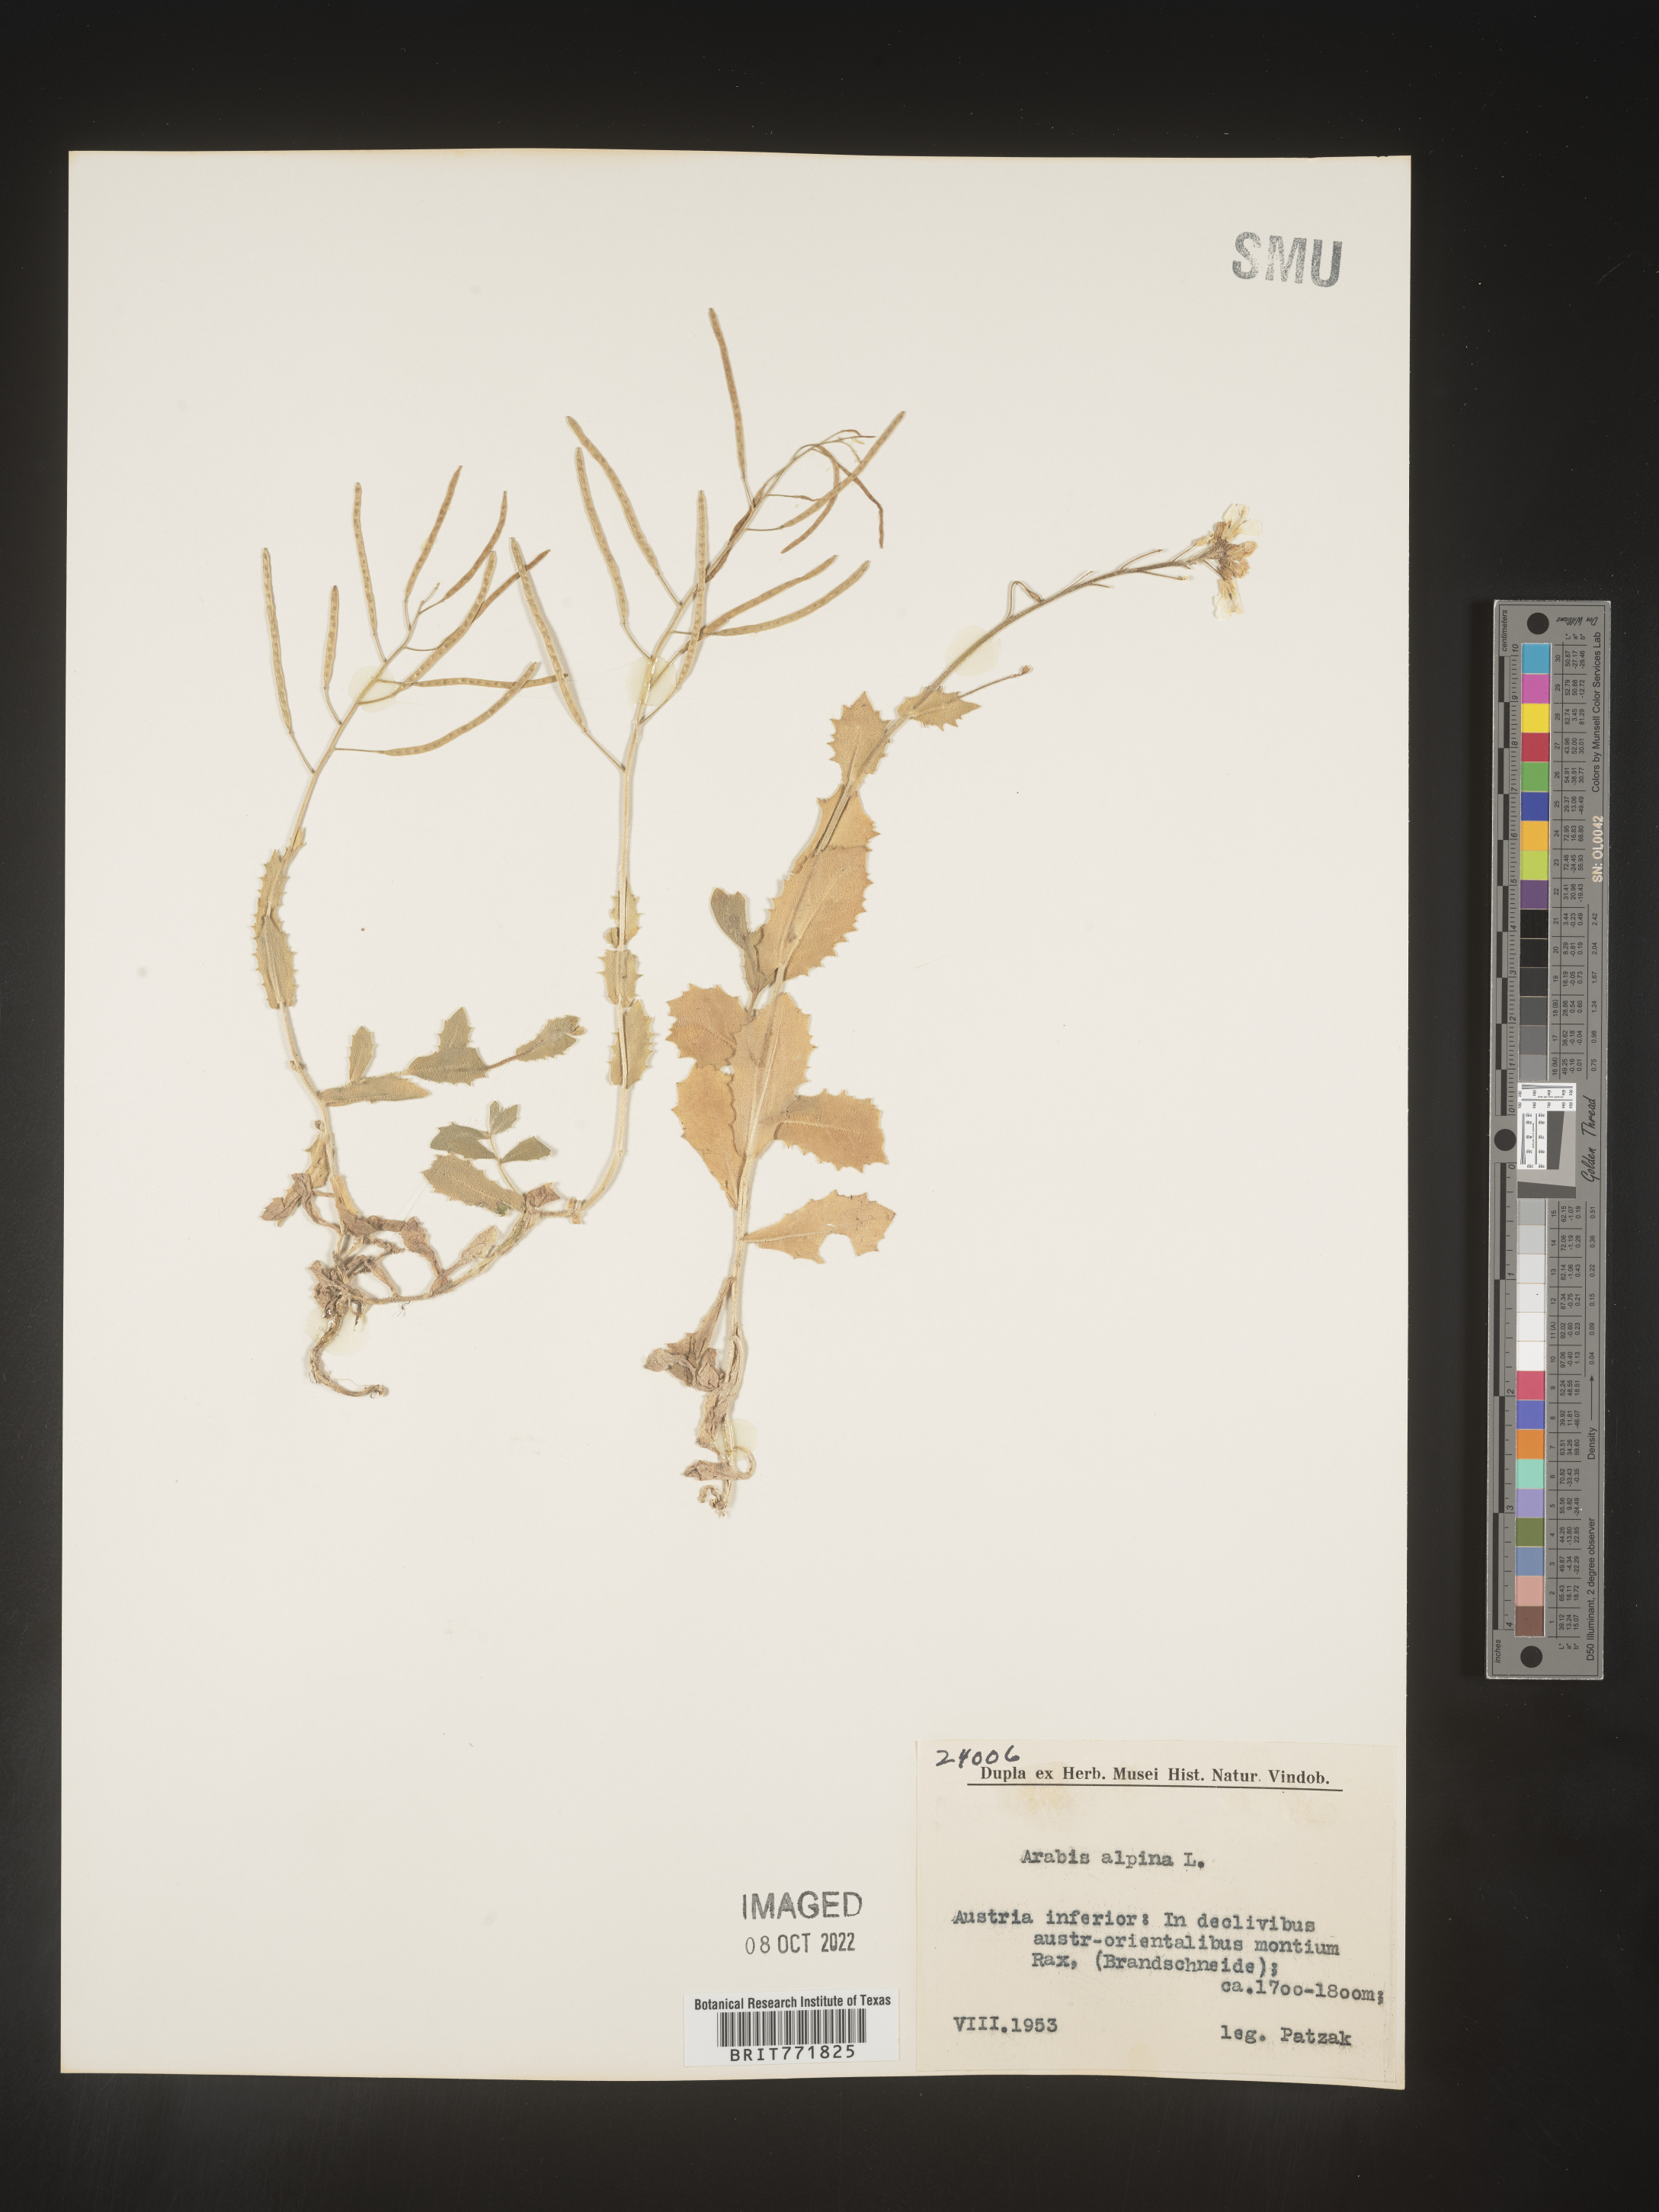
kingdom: Plantae
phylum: Tracheophyta
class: Magnoliopsida
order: Brassicales
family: Brassicaceae
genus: Arabis
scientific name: Arabis
